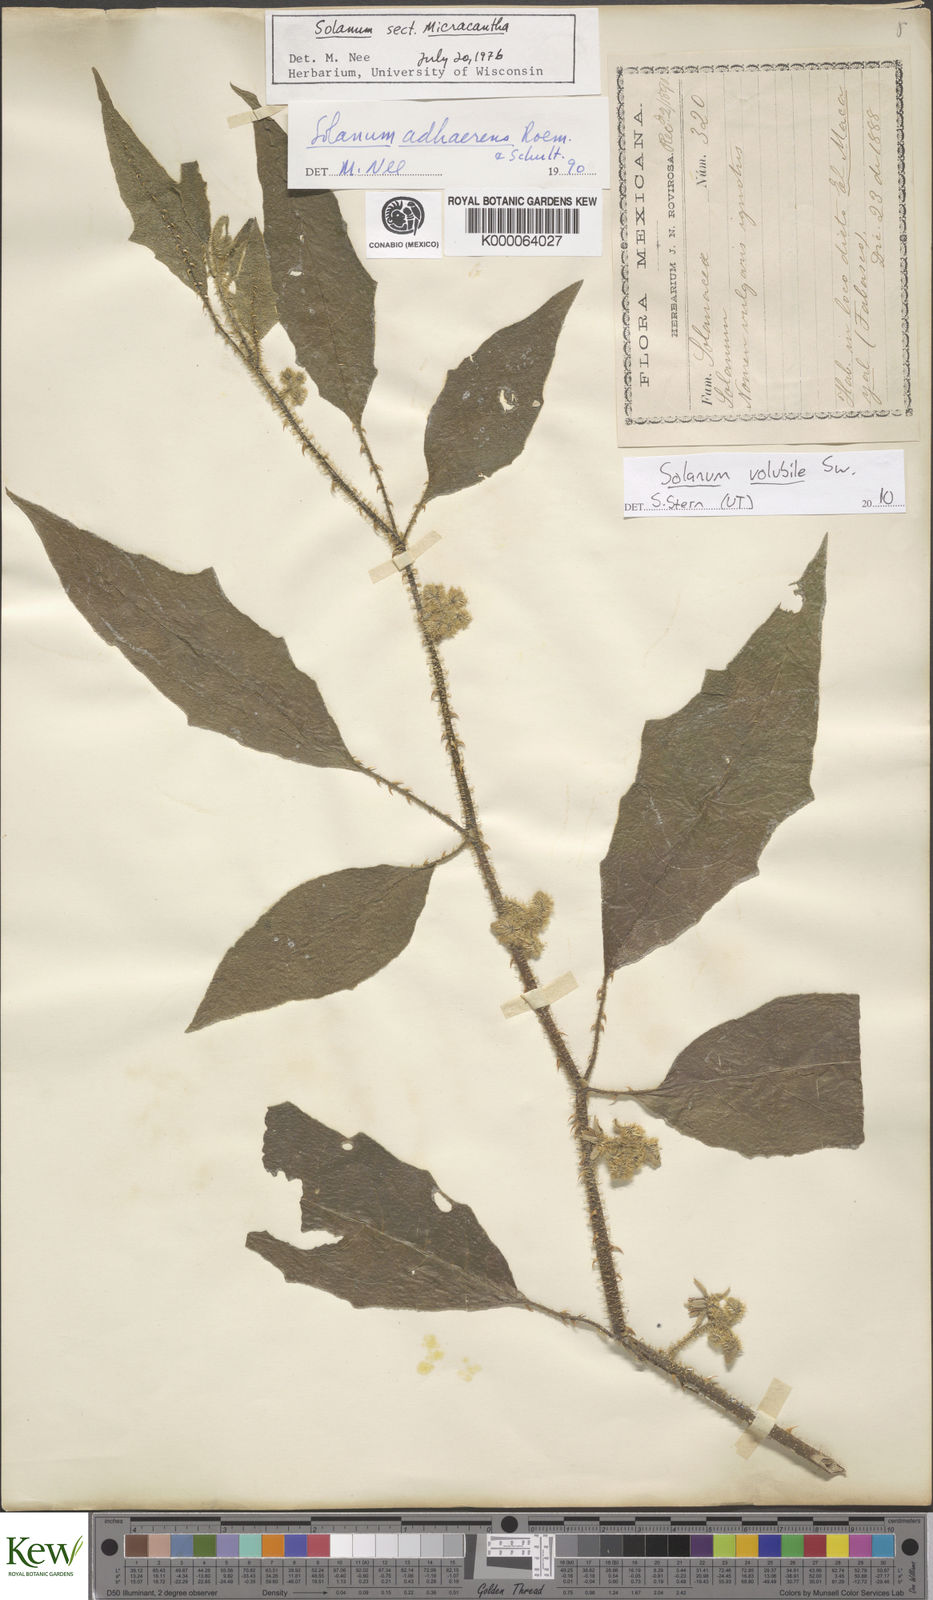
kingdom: Plantae
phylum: Tracheophyta
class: Magnoliopsida
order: Solanales
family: Solanaceae
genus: Solanum
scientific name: Solanum volubile
